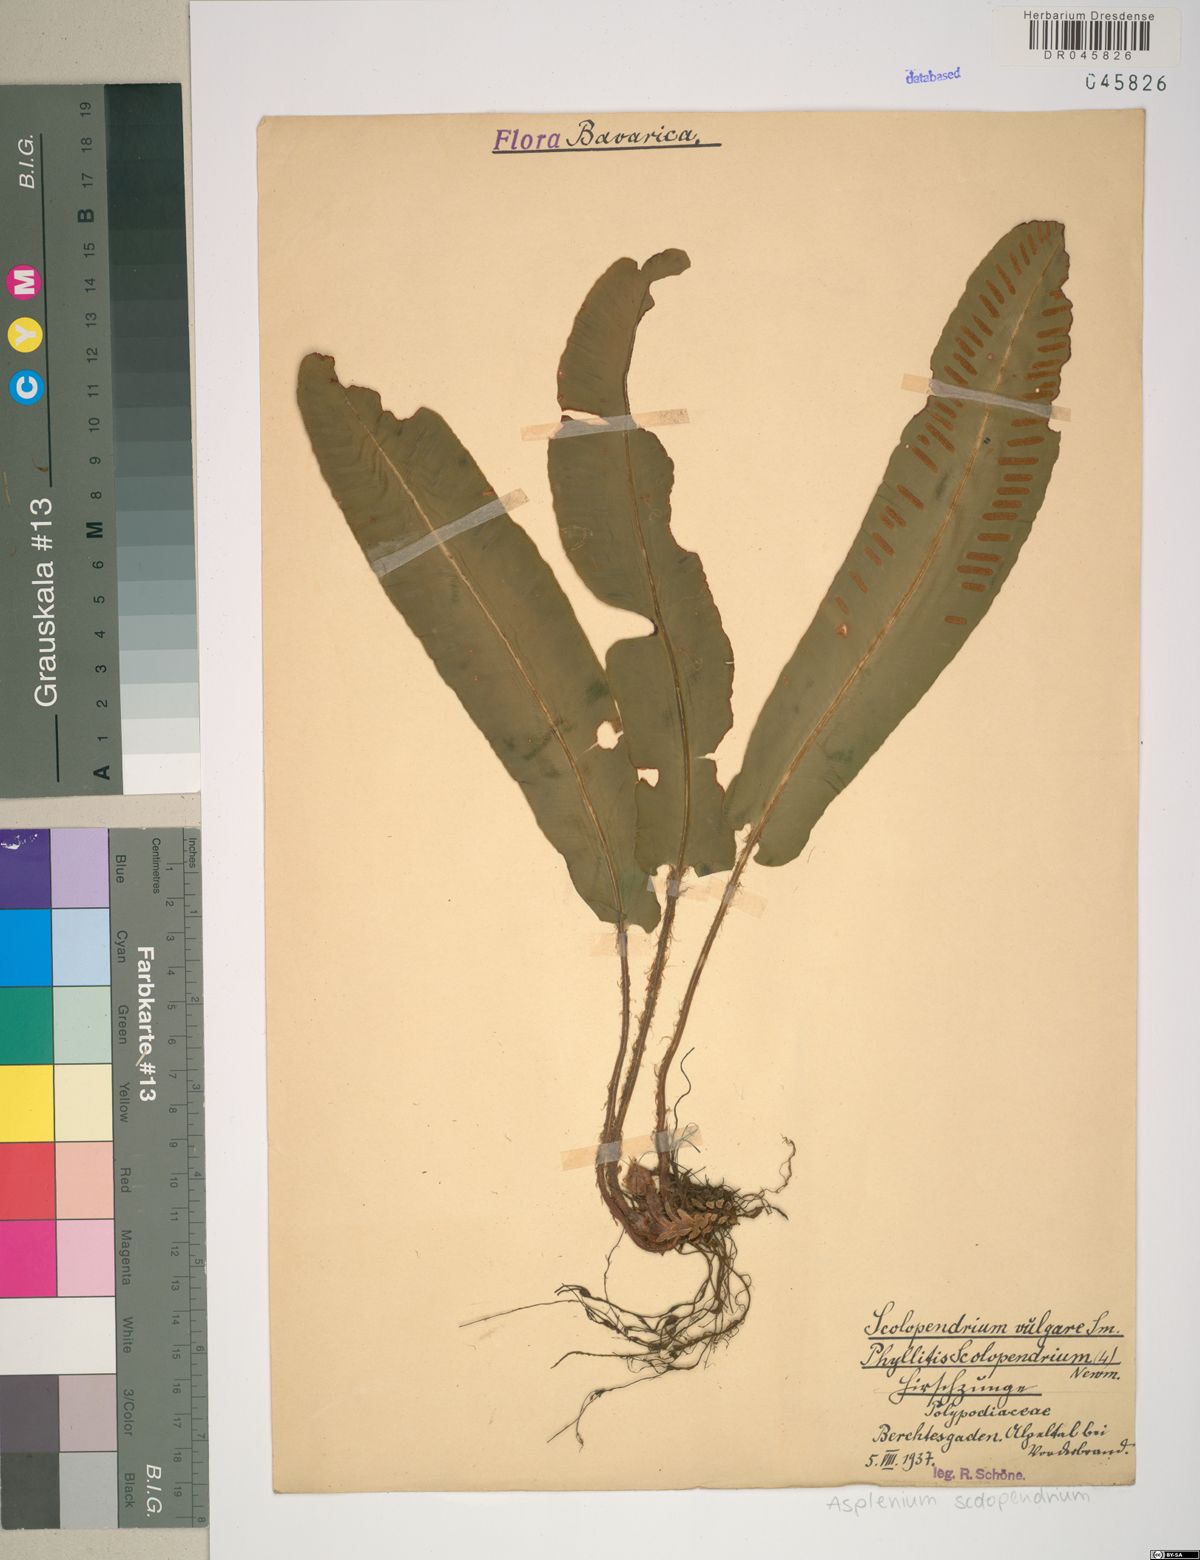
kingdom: Plantae
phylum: Tracheophyta
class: Polypodiopsida
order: Polypodiales
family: Aspleniaceae
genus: Asplenium
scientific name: Asplenium scolopendrium
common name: Hart's-tongue fern
